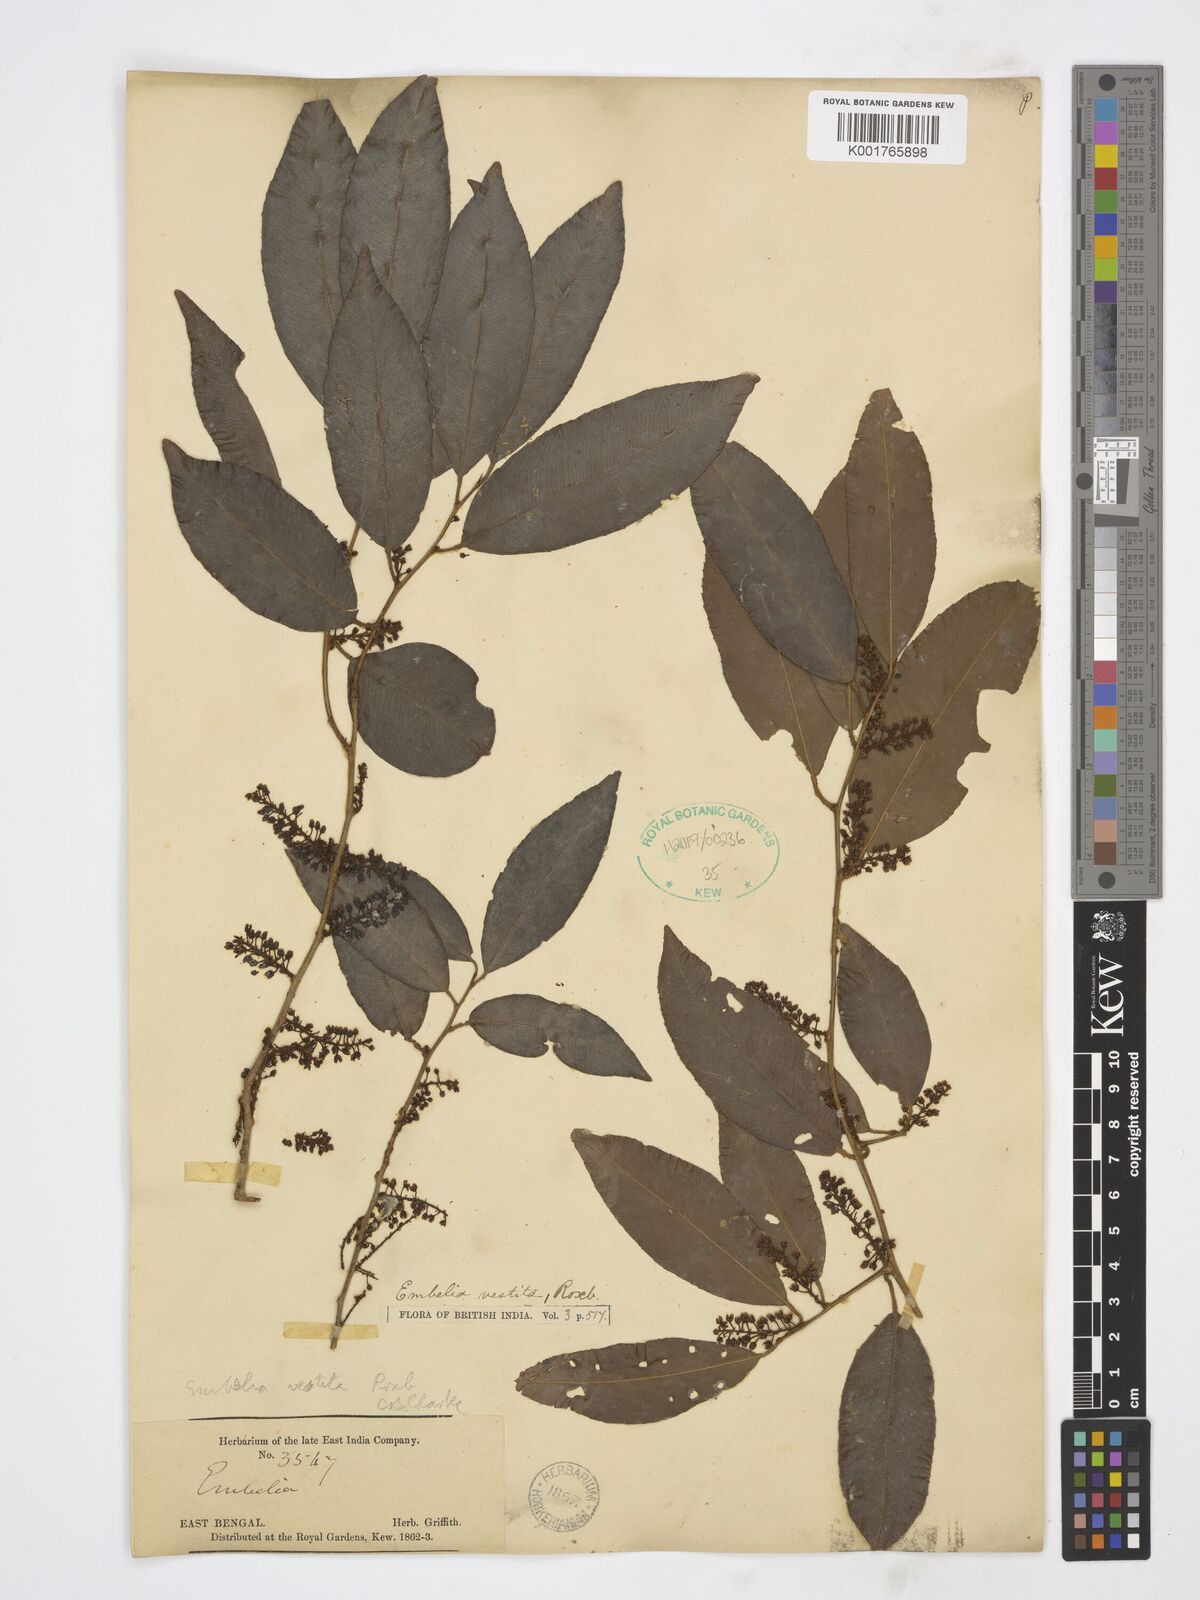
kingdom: Plantae
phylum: Tracheophyta
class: Magnoliopsida
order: Ericales
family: Primulaceae
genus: Embelia
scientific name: Embelia vestita
